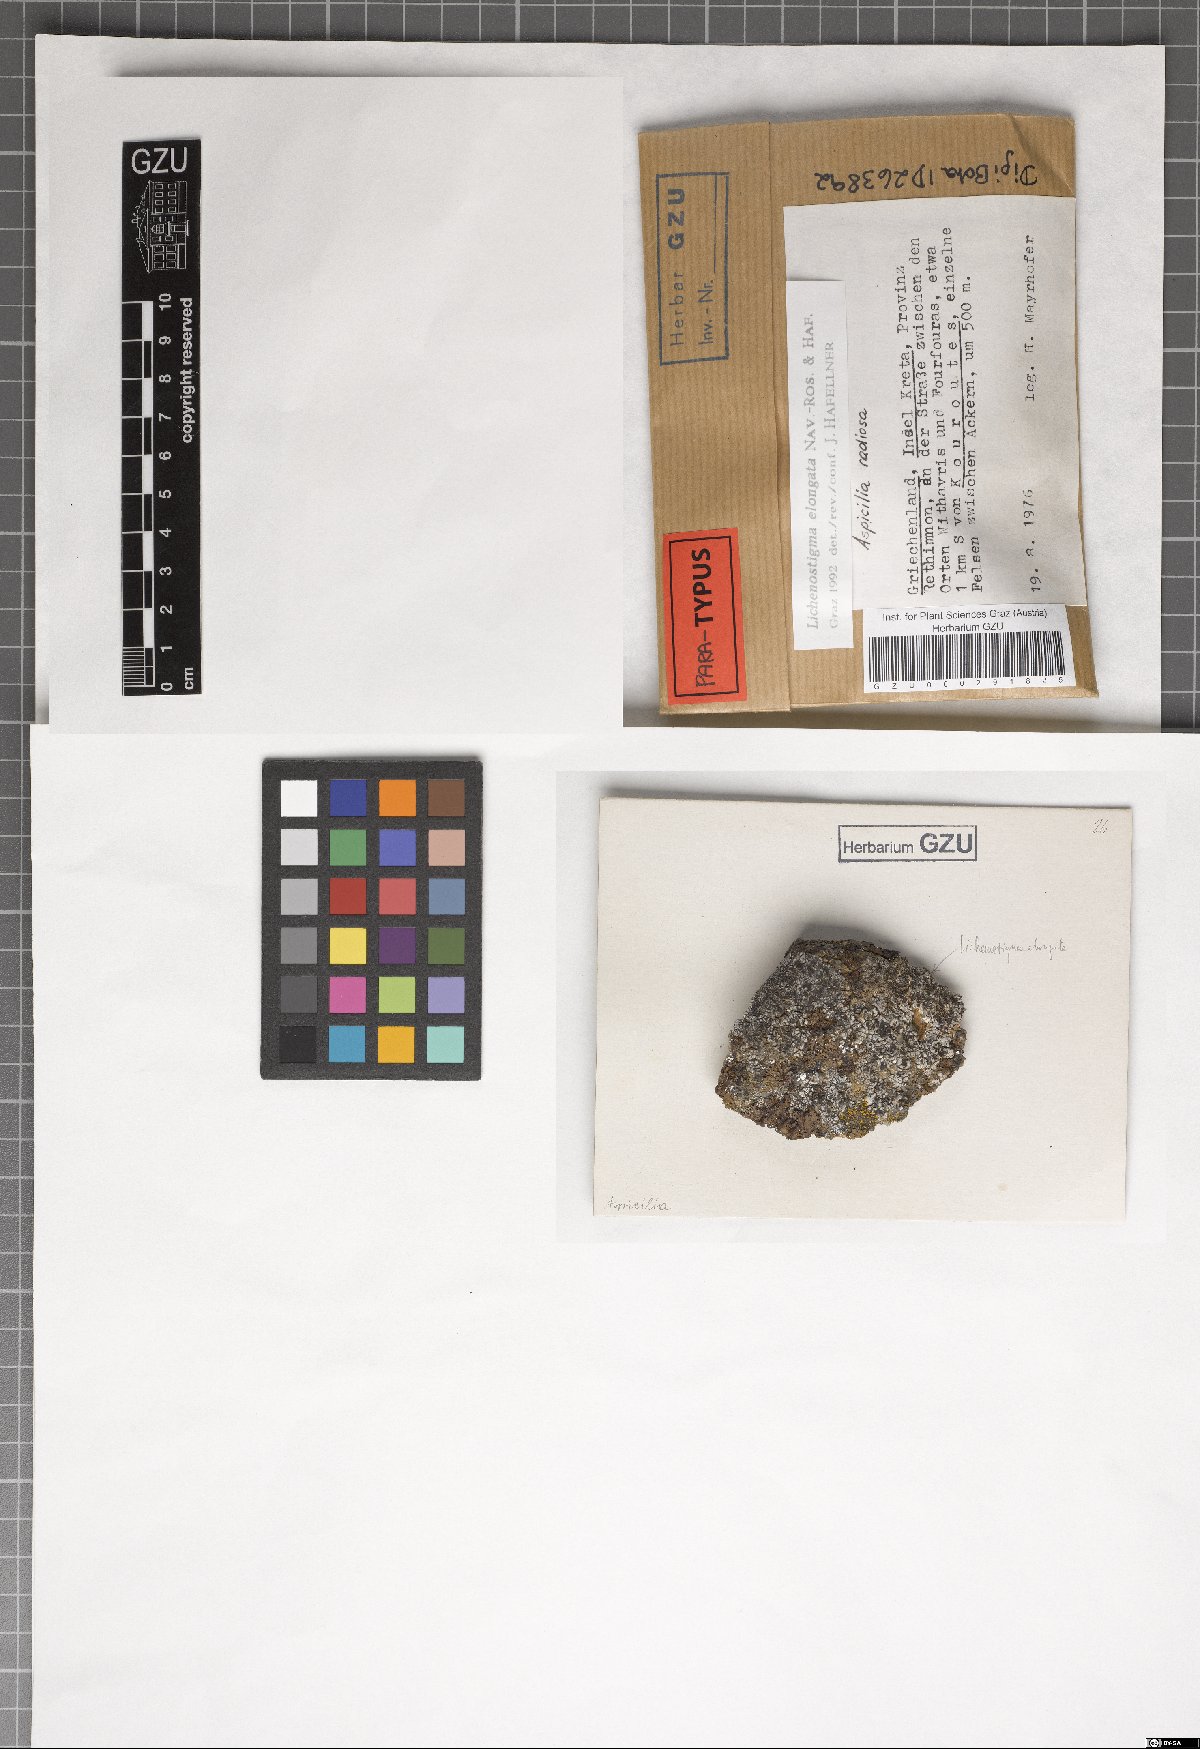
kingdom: Fungi
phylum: Ascomycota
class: Arthoniomycetes
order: Lichenostigmatales
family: Phaeococcomycetaceae
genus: Lichenostigma
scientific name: Lichenostigma elongatum
